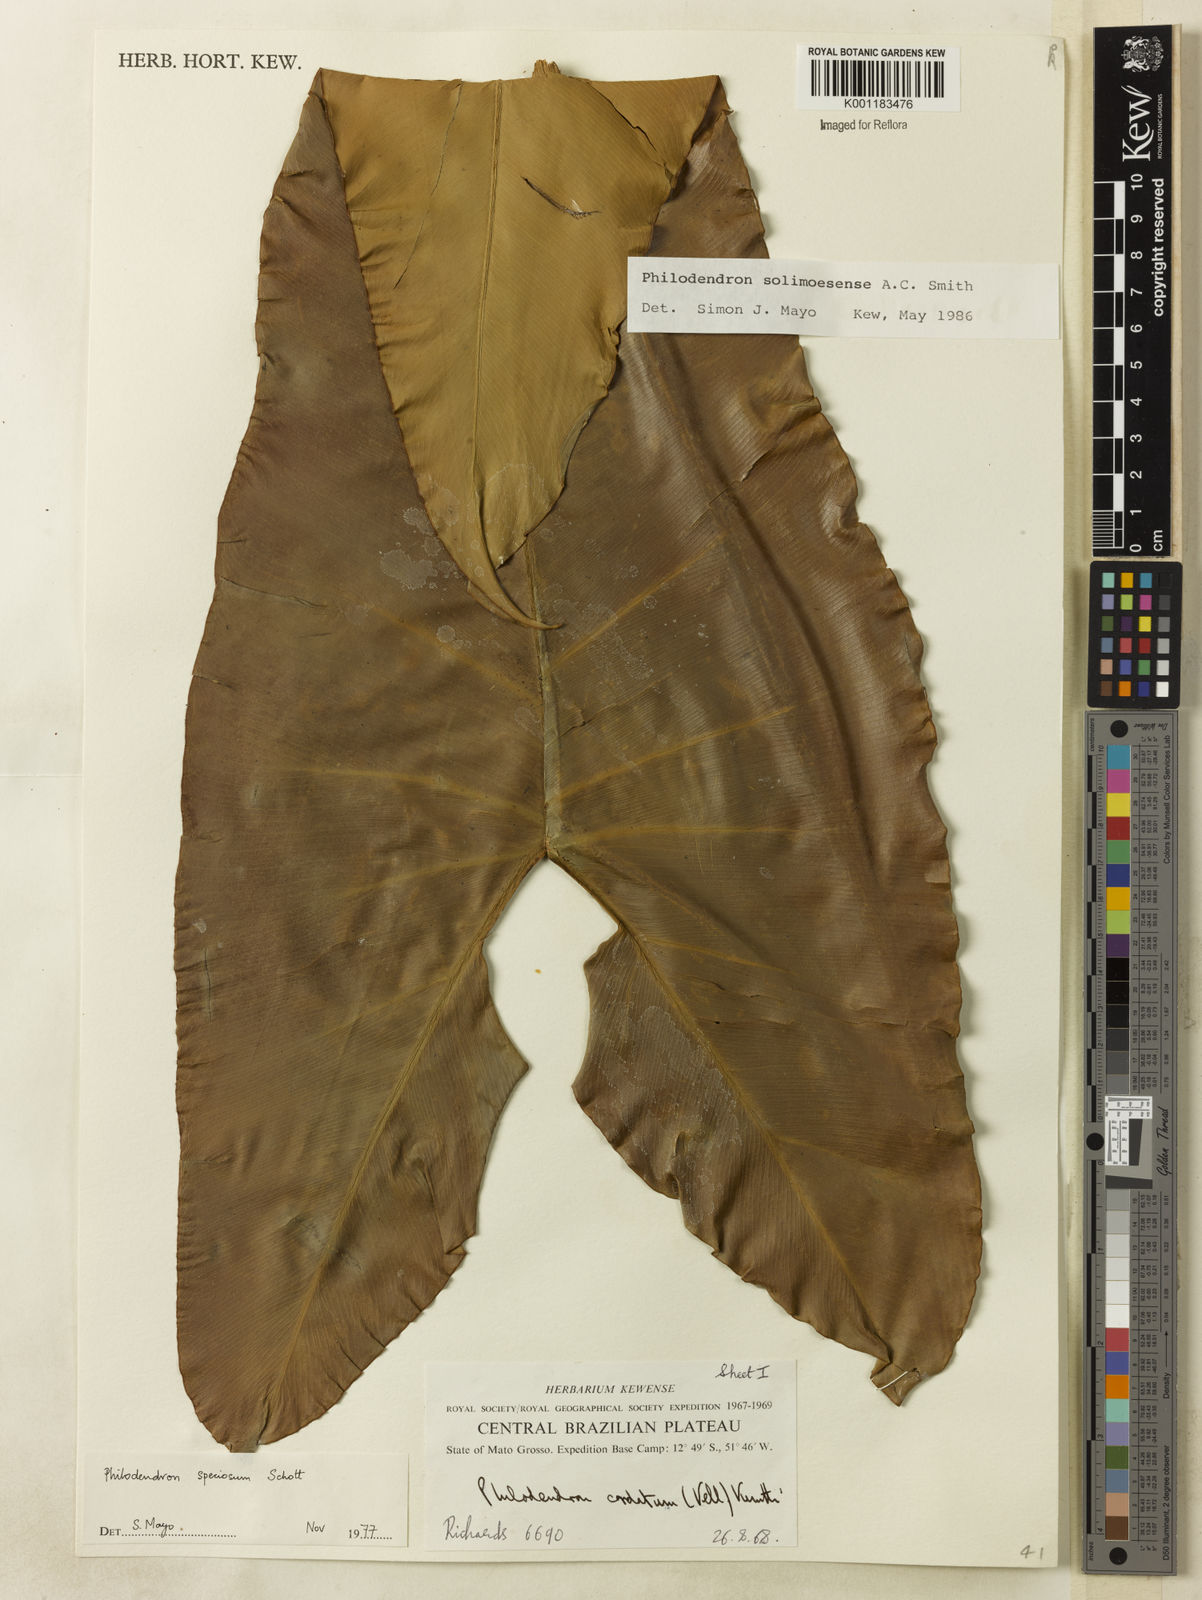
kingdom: Plantae
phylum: Tracheophyta
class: Liliopsida
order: Alismatales
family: Araceae
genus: Thaumatophyllum
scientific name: Thaumatophyllum solimoesense
